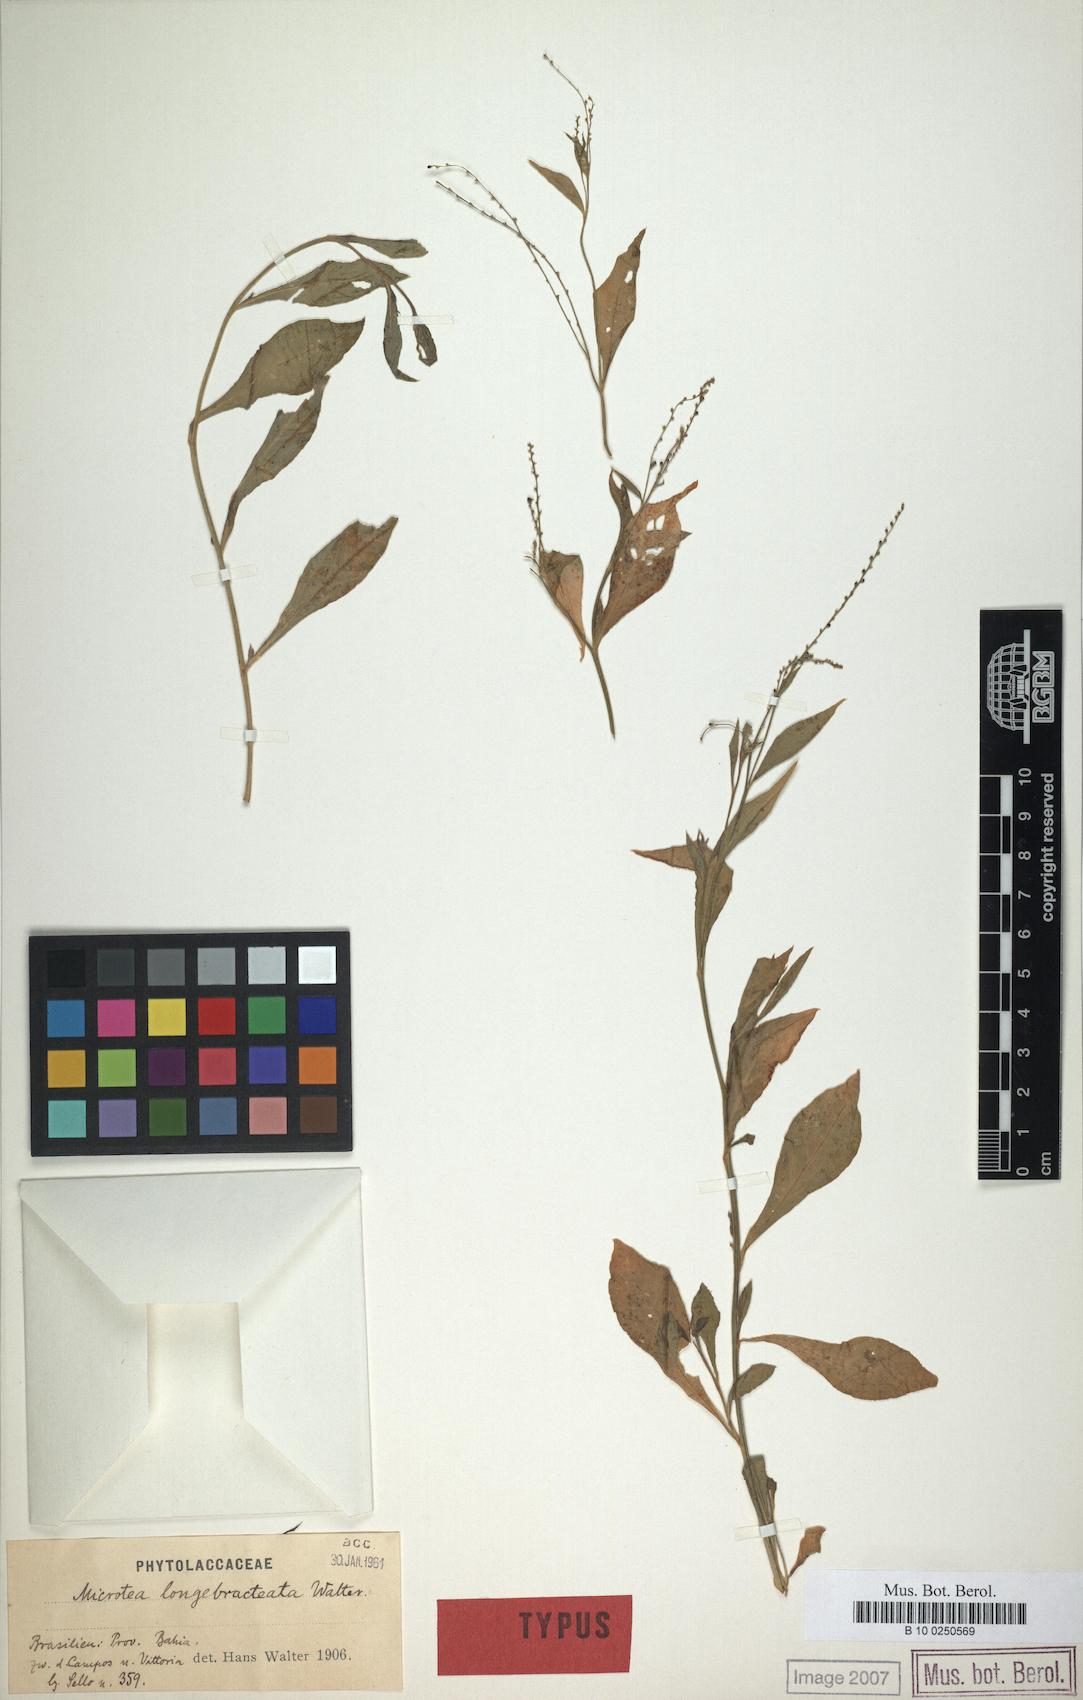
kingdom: Plantae
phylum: Tracheophyta
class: Magnoliopsida
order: Caryophyllales
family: Microteaceae
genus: Microtea
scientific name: Microtea celosioides
